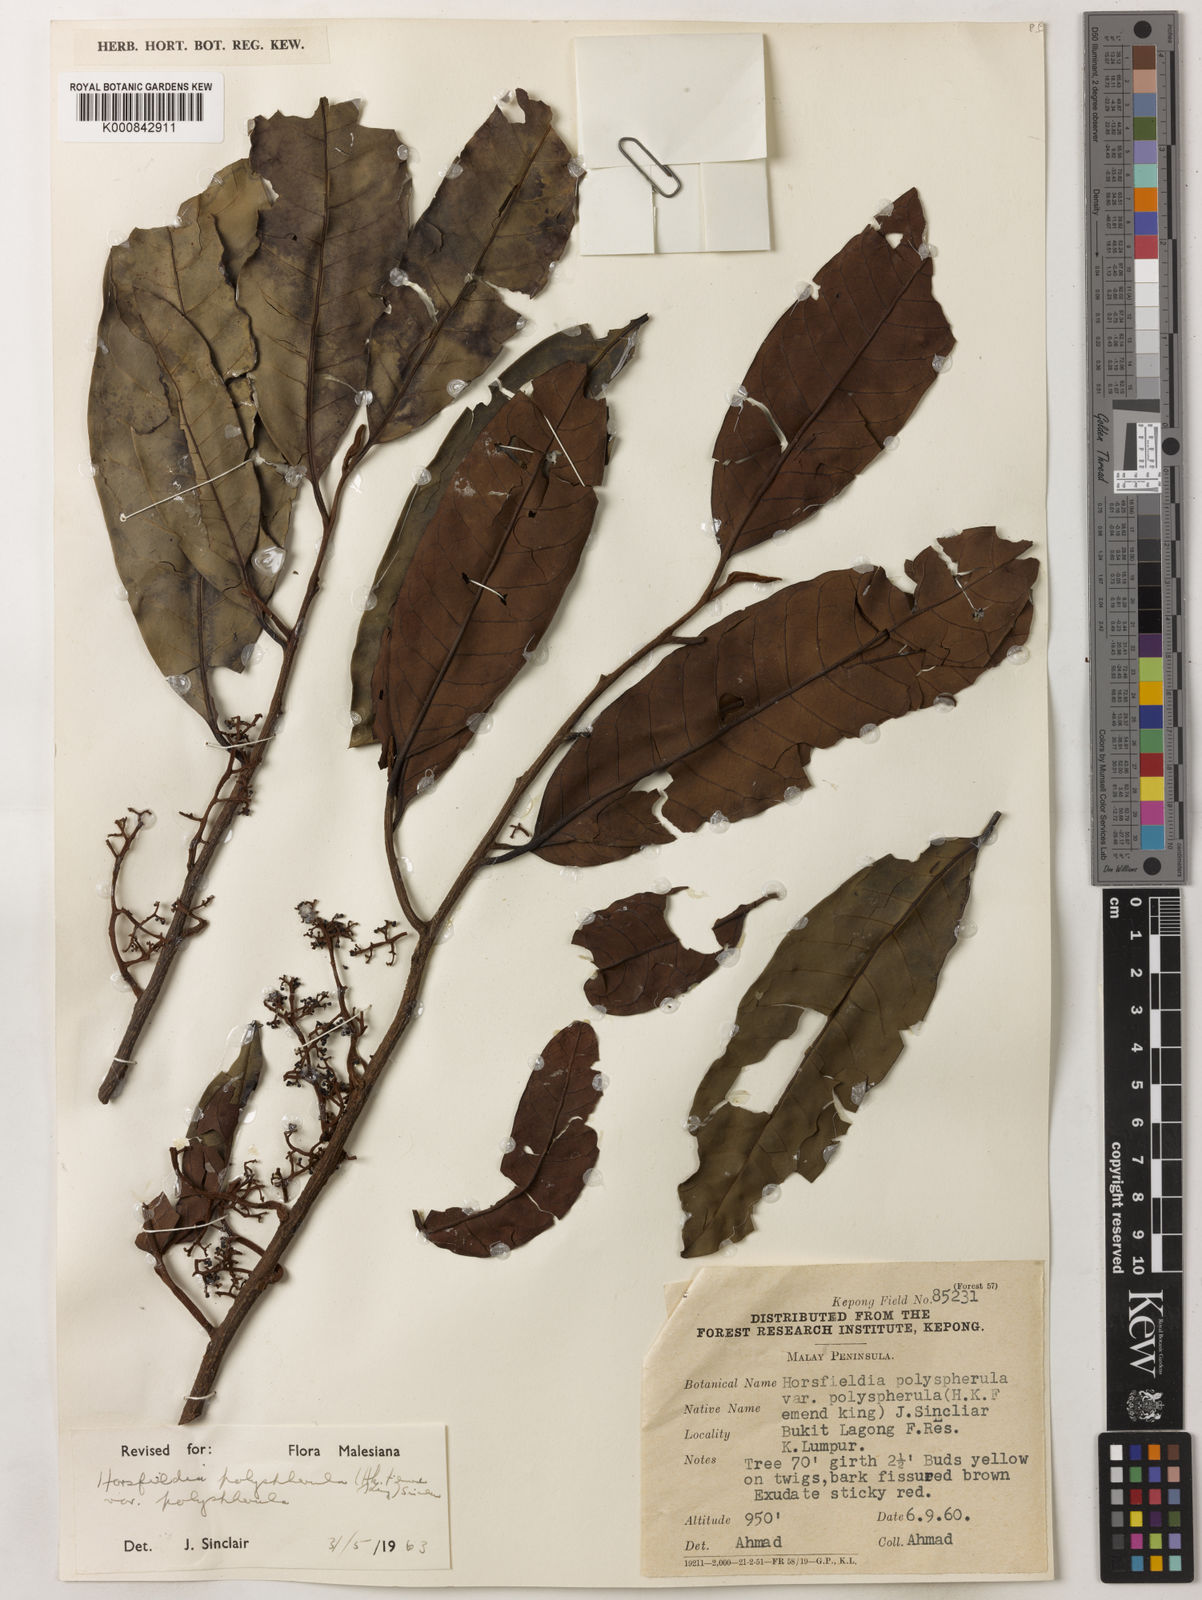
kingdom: Plantae
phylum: Tracheophyta
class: Magnoliopsida
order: Magnoliales
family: Myristicaceae
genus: Horsfieldia
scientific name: Horsfieldia
